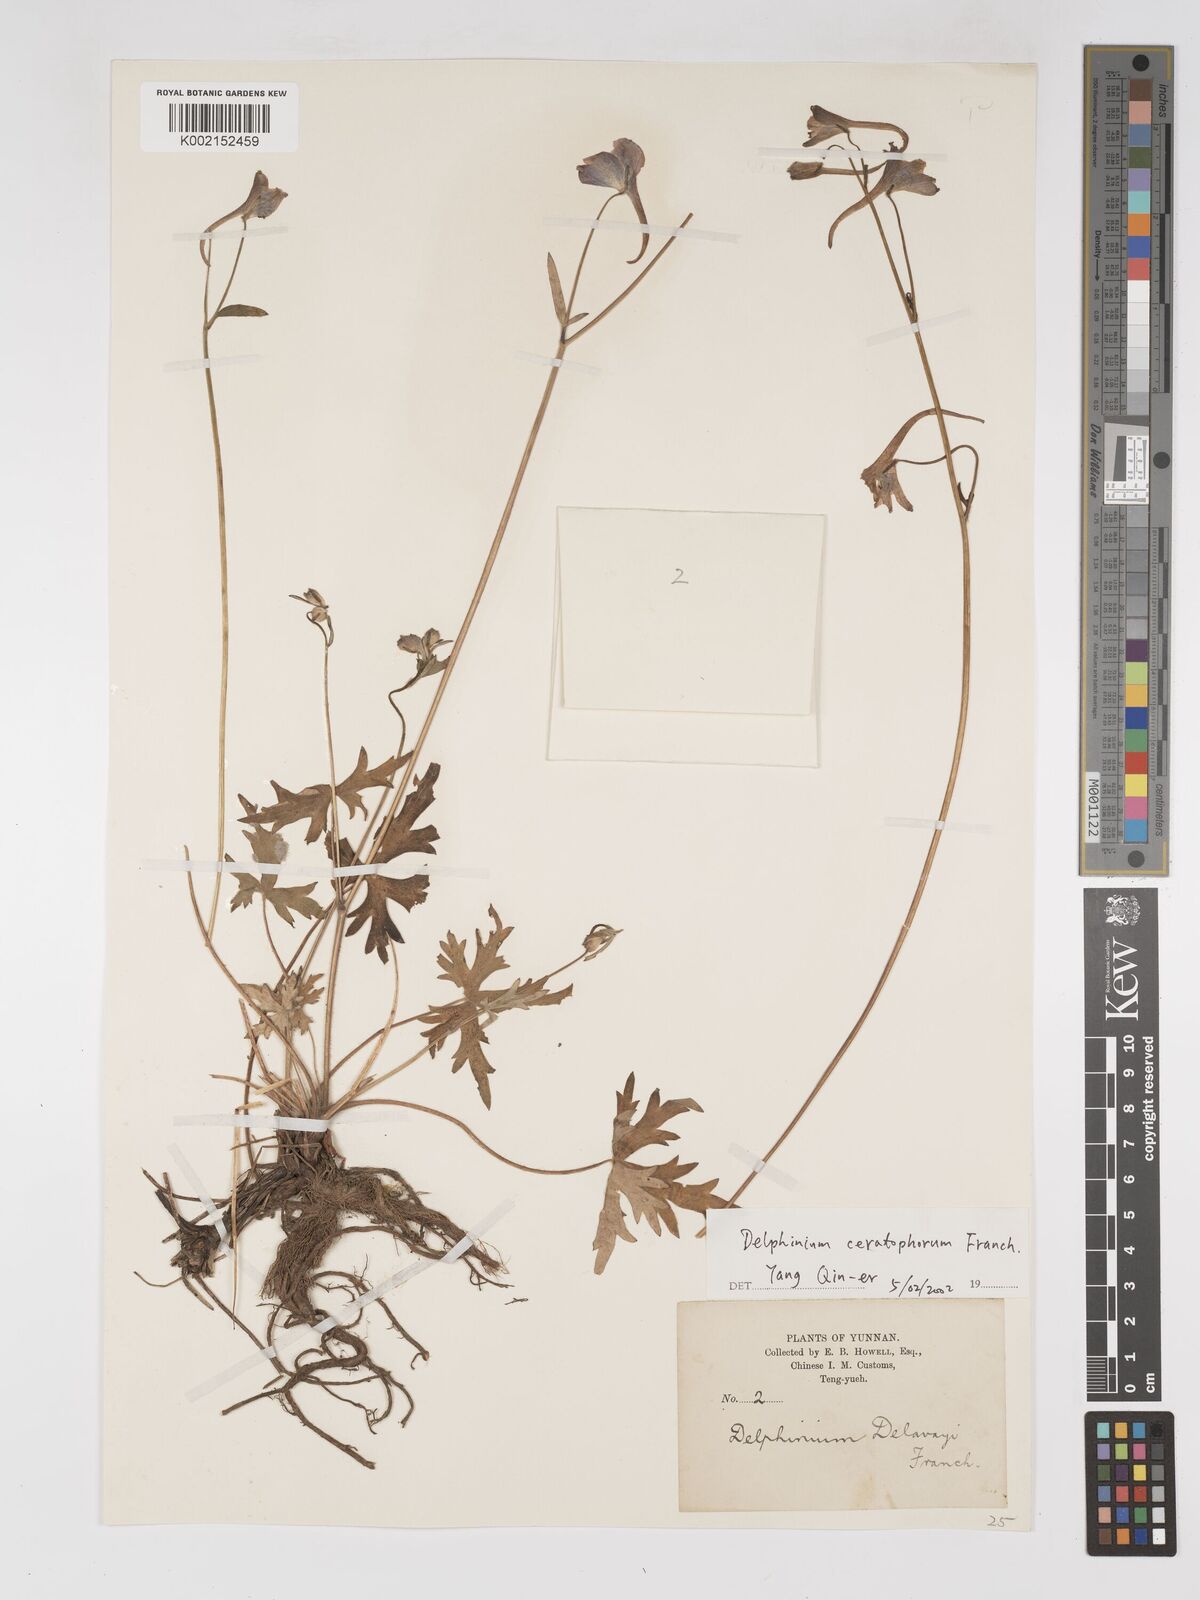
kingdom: Plantae
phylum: Tracheophyta
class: Magnoliopsida
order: Ranunculales
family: Ranunculaceae
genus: Delphinium
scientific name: Delphinium ceratophorum
